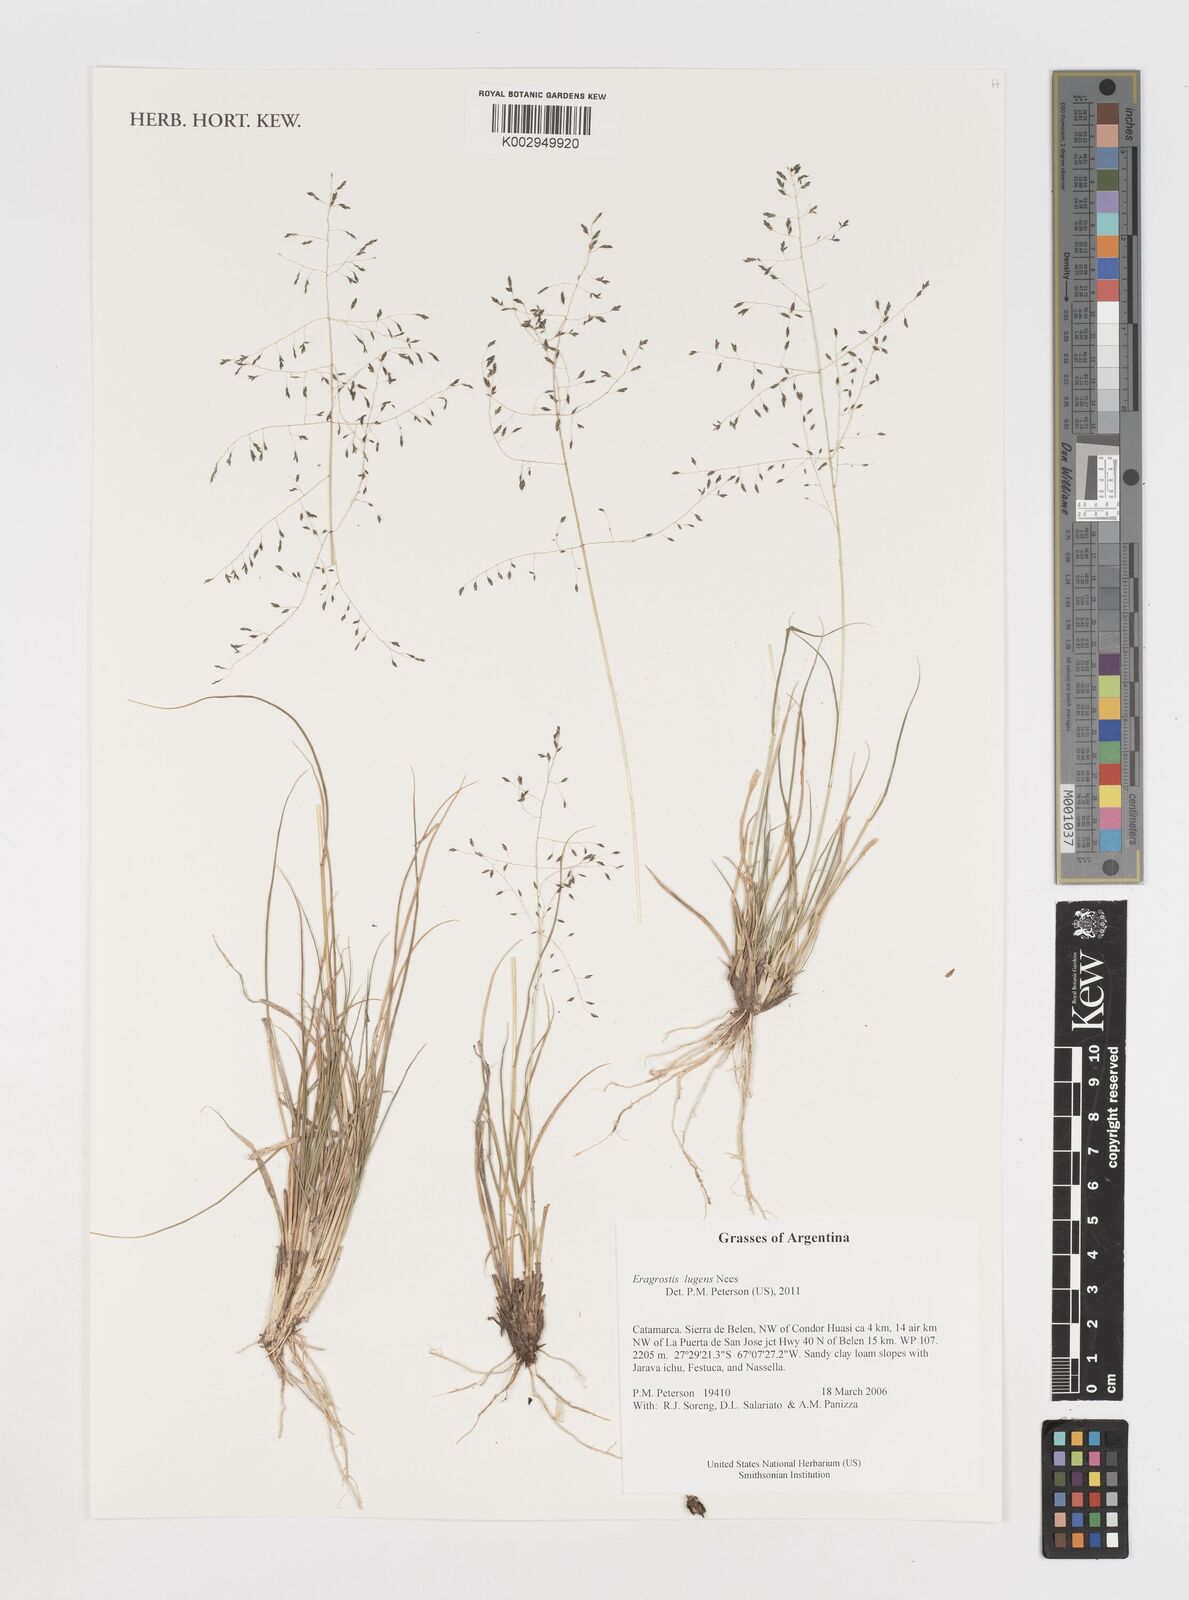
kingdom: Plantae
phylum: Tracheophyta
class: Liliopsida
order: Poales
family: Poaceae
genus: Eragrostis
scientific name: Eragrostis lugens
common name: Mourning love grass
